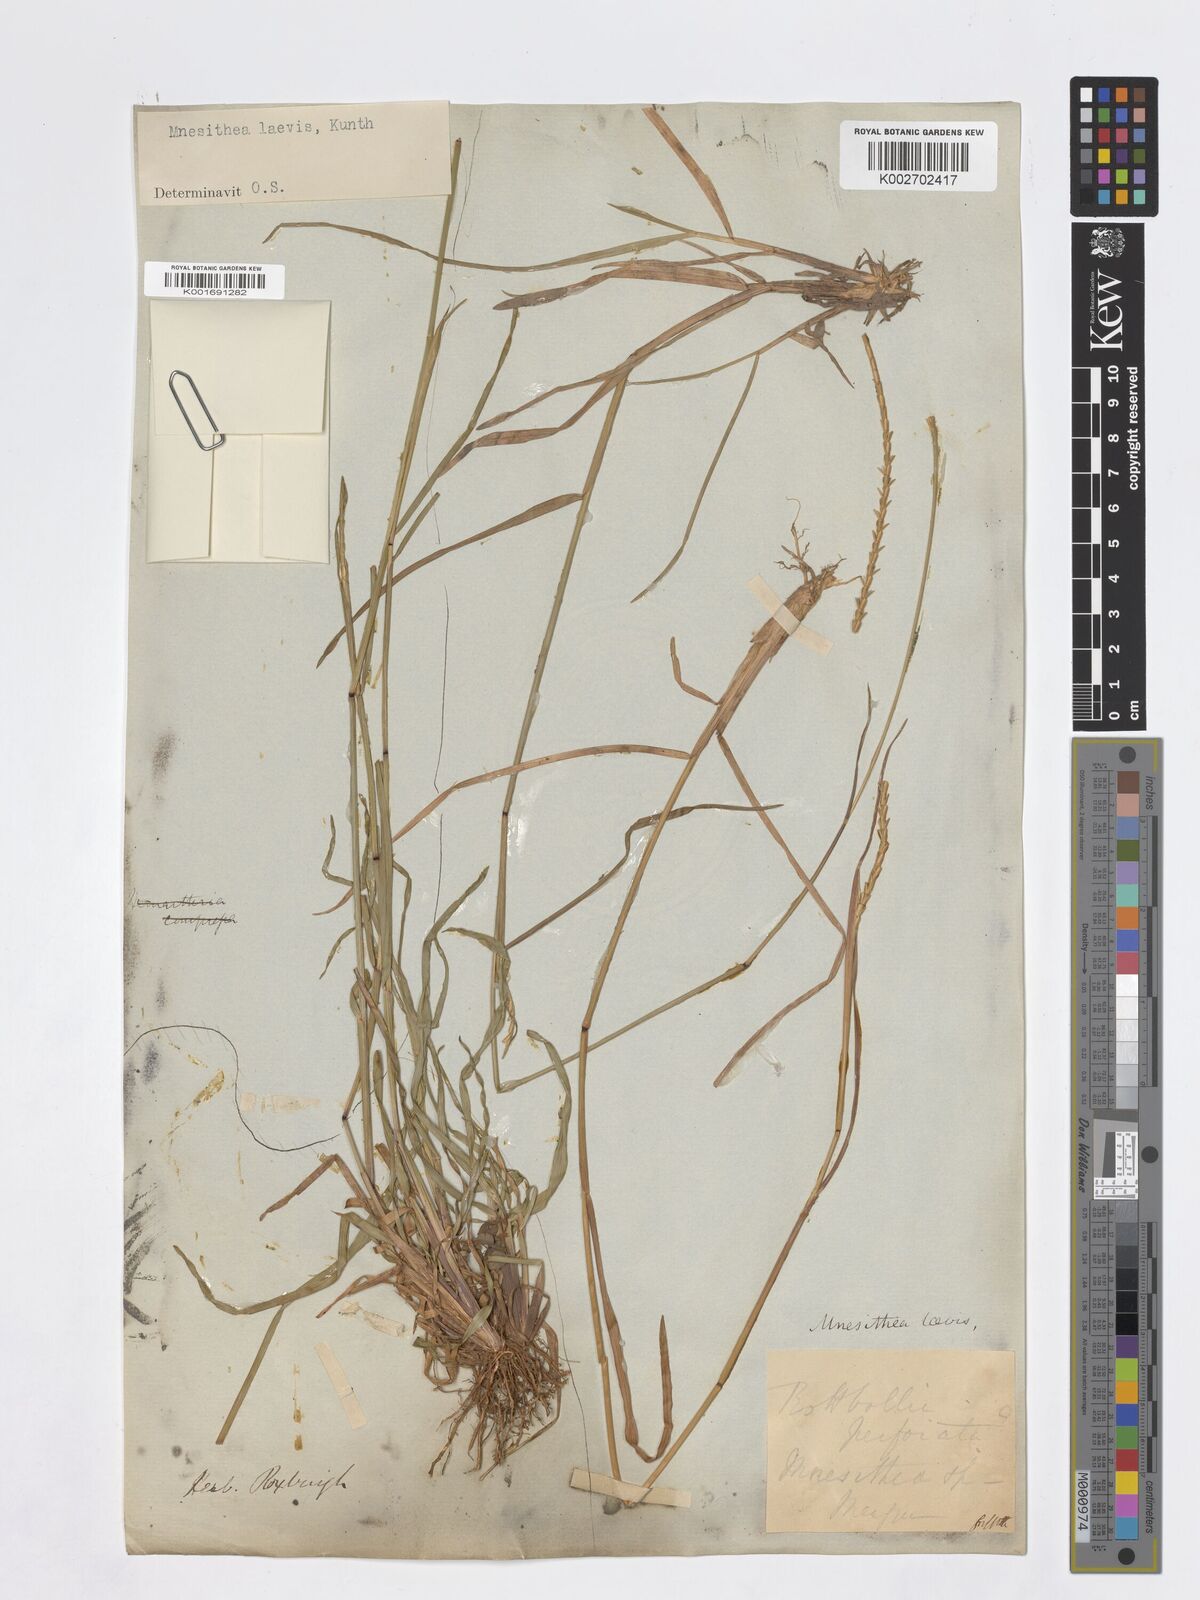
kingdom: Plantae
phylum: Tracheophyta
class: Liliopsida
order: Poales
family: Poaceae
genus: Mnesithea
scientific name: Mnesithea laevis
